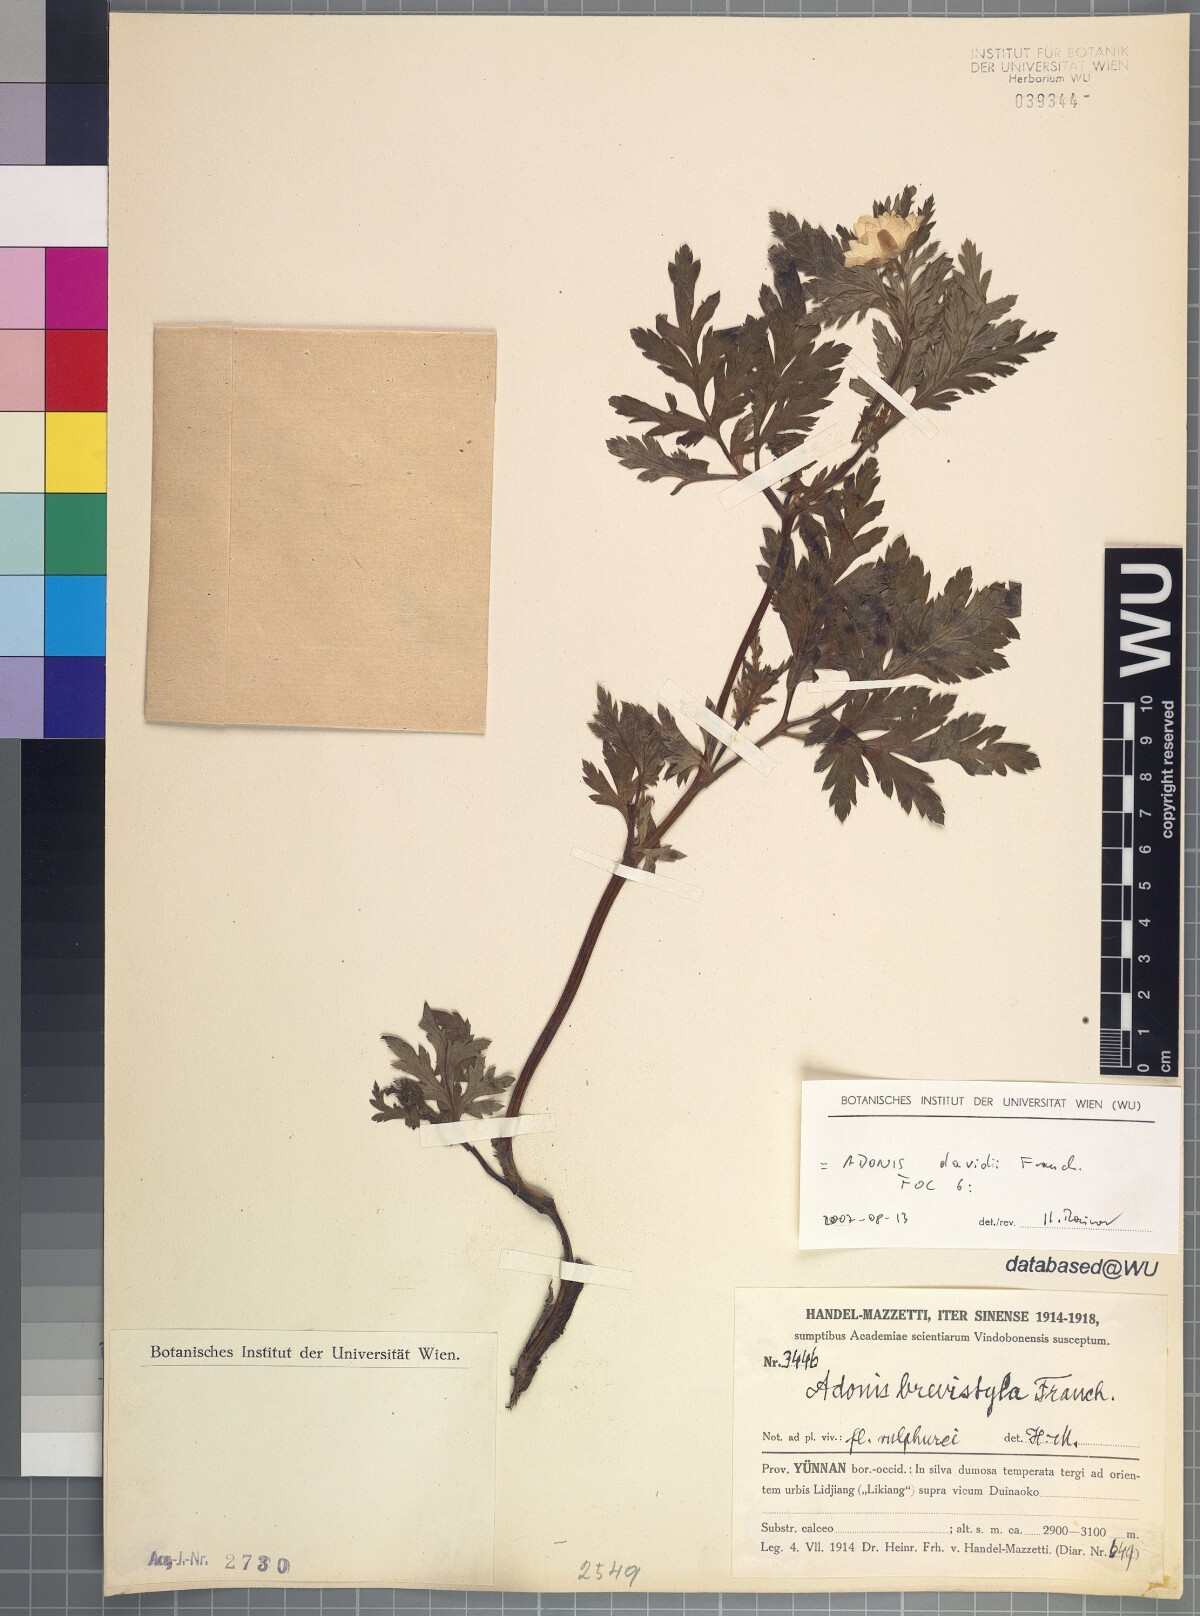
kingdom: Plantae
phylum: Tracheophyta
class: Magnoliopsida
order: Ranunculales
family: Ranunculaceae
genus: Adonis
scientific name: Adonis davidii
